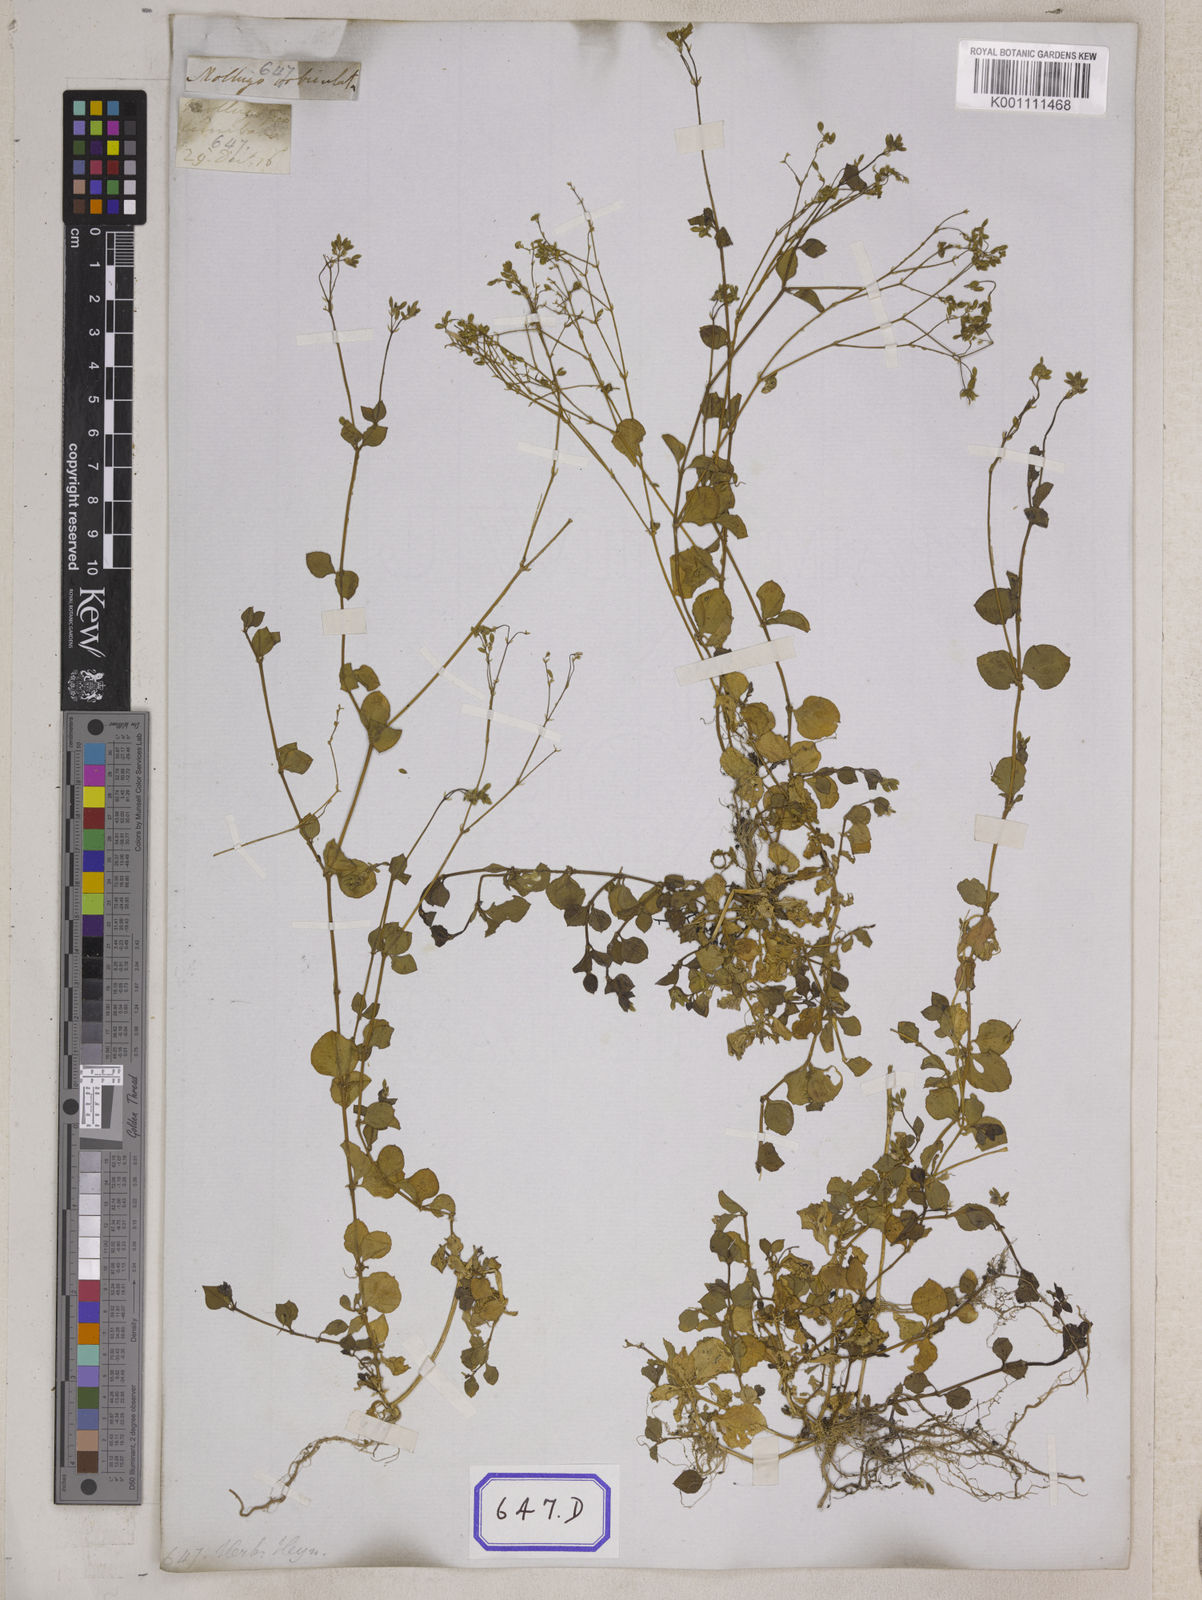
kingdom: Plantae
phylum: Tracheophyta
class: Magnoliopsida
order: Caryophyllales
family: Caryophyllaceae
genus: Drymaria
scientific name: Drymaria
